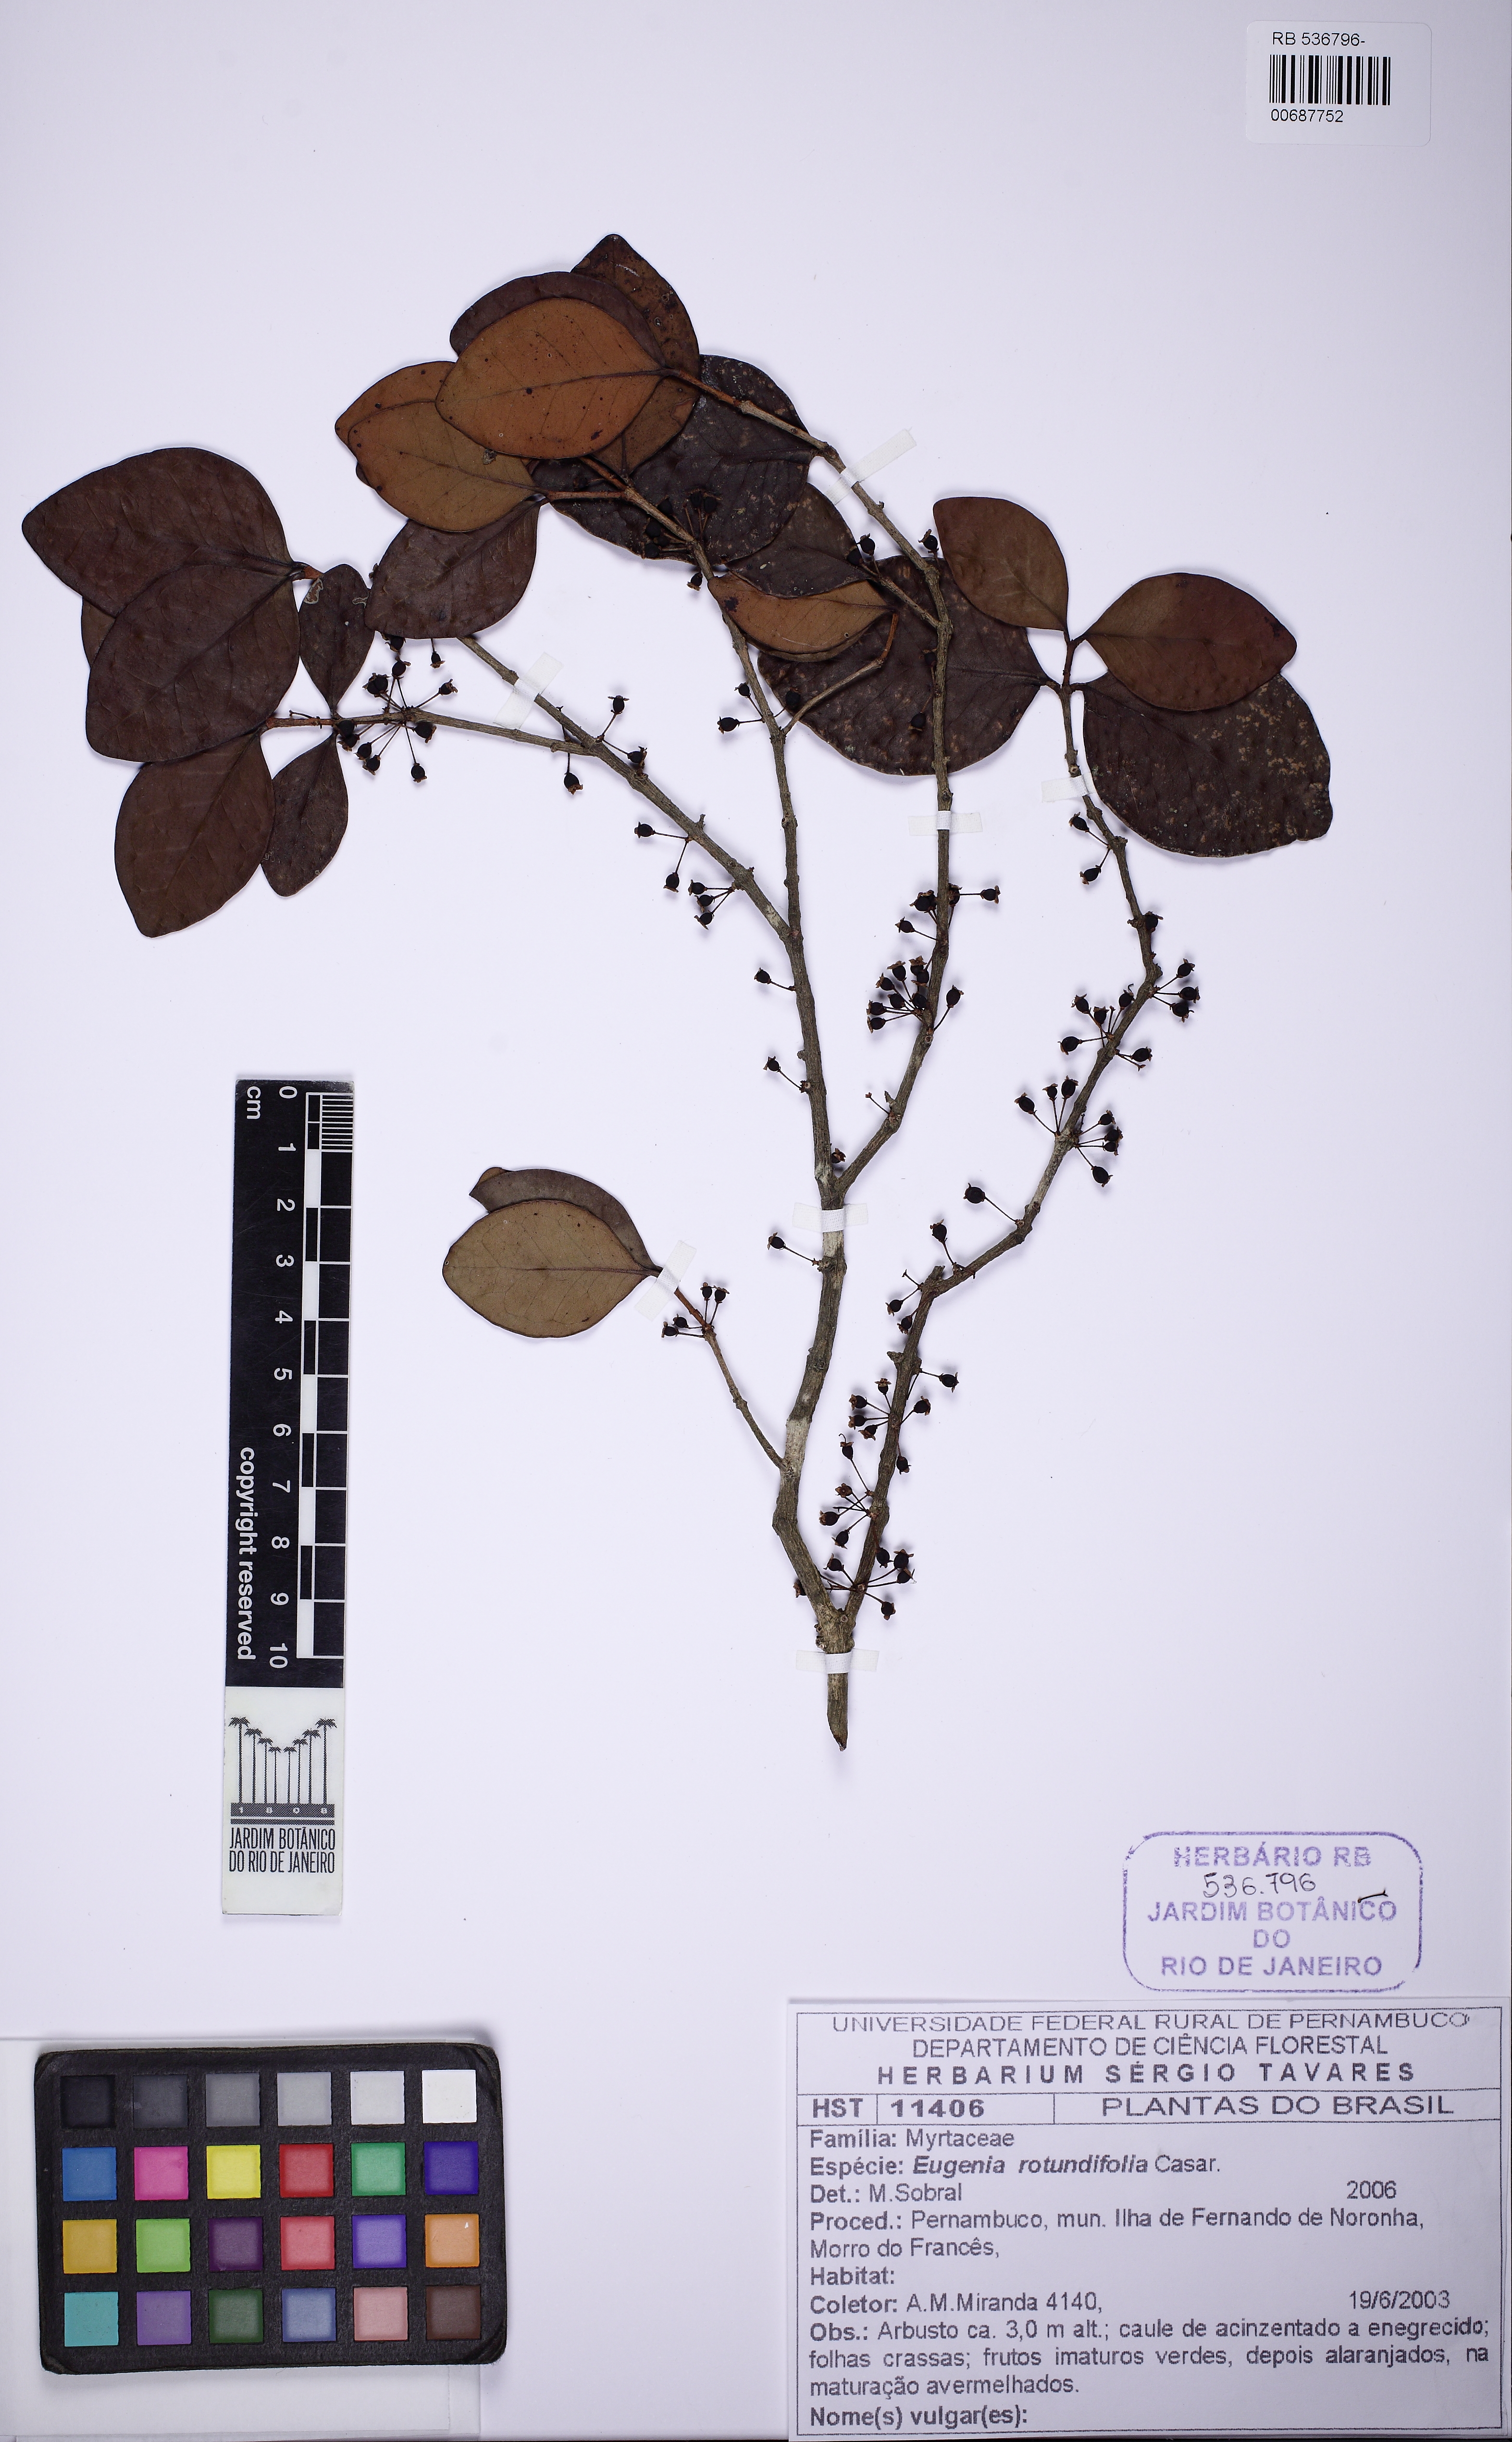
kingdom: Plantae
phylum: Tracheophyta
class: Magnoliopsida
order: Myrtales
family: Myrtaceae
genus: Syzygium
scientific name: Syzygium rotundifolium
